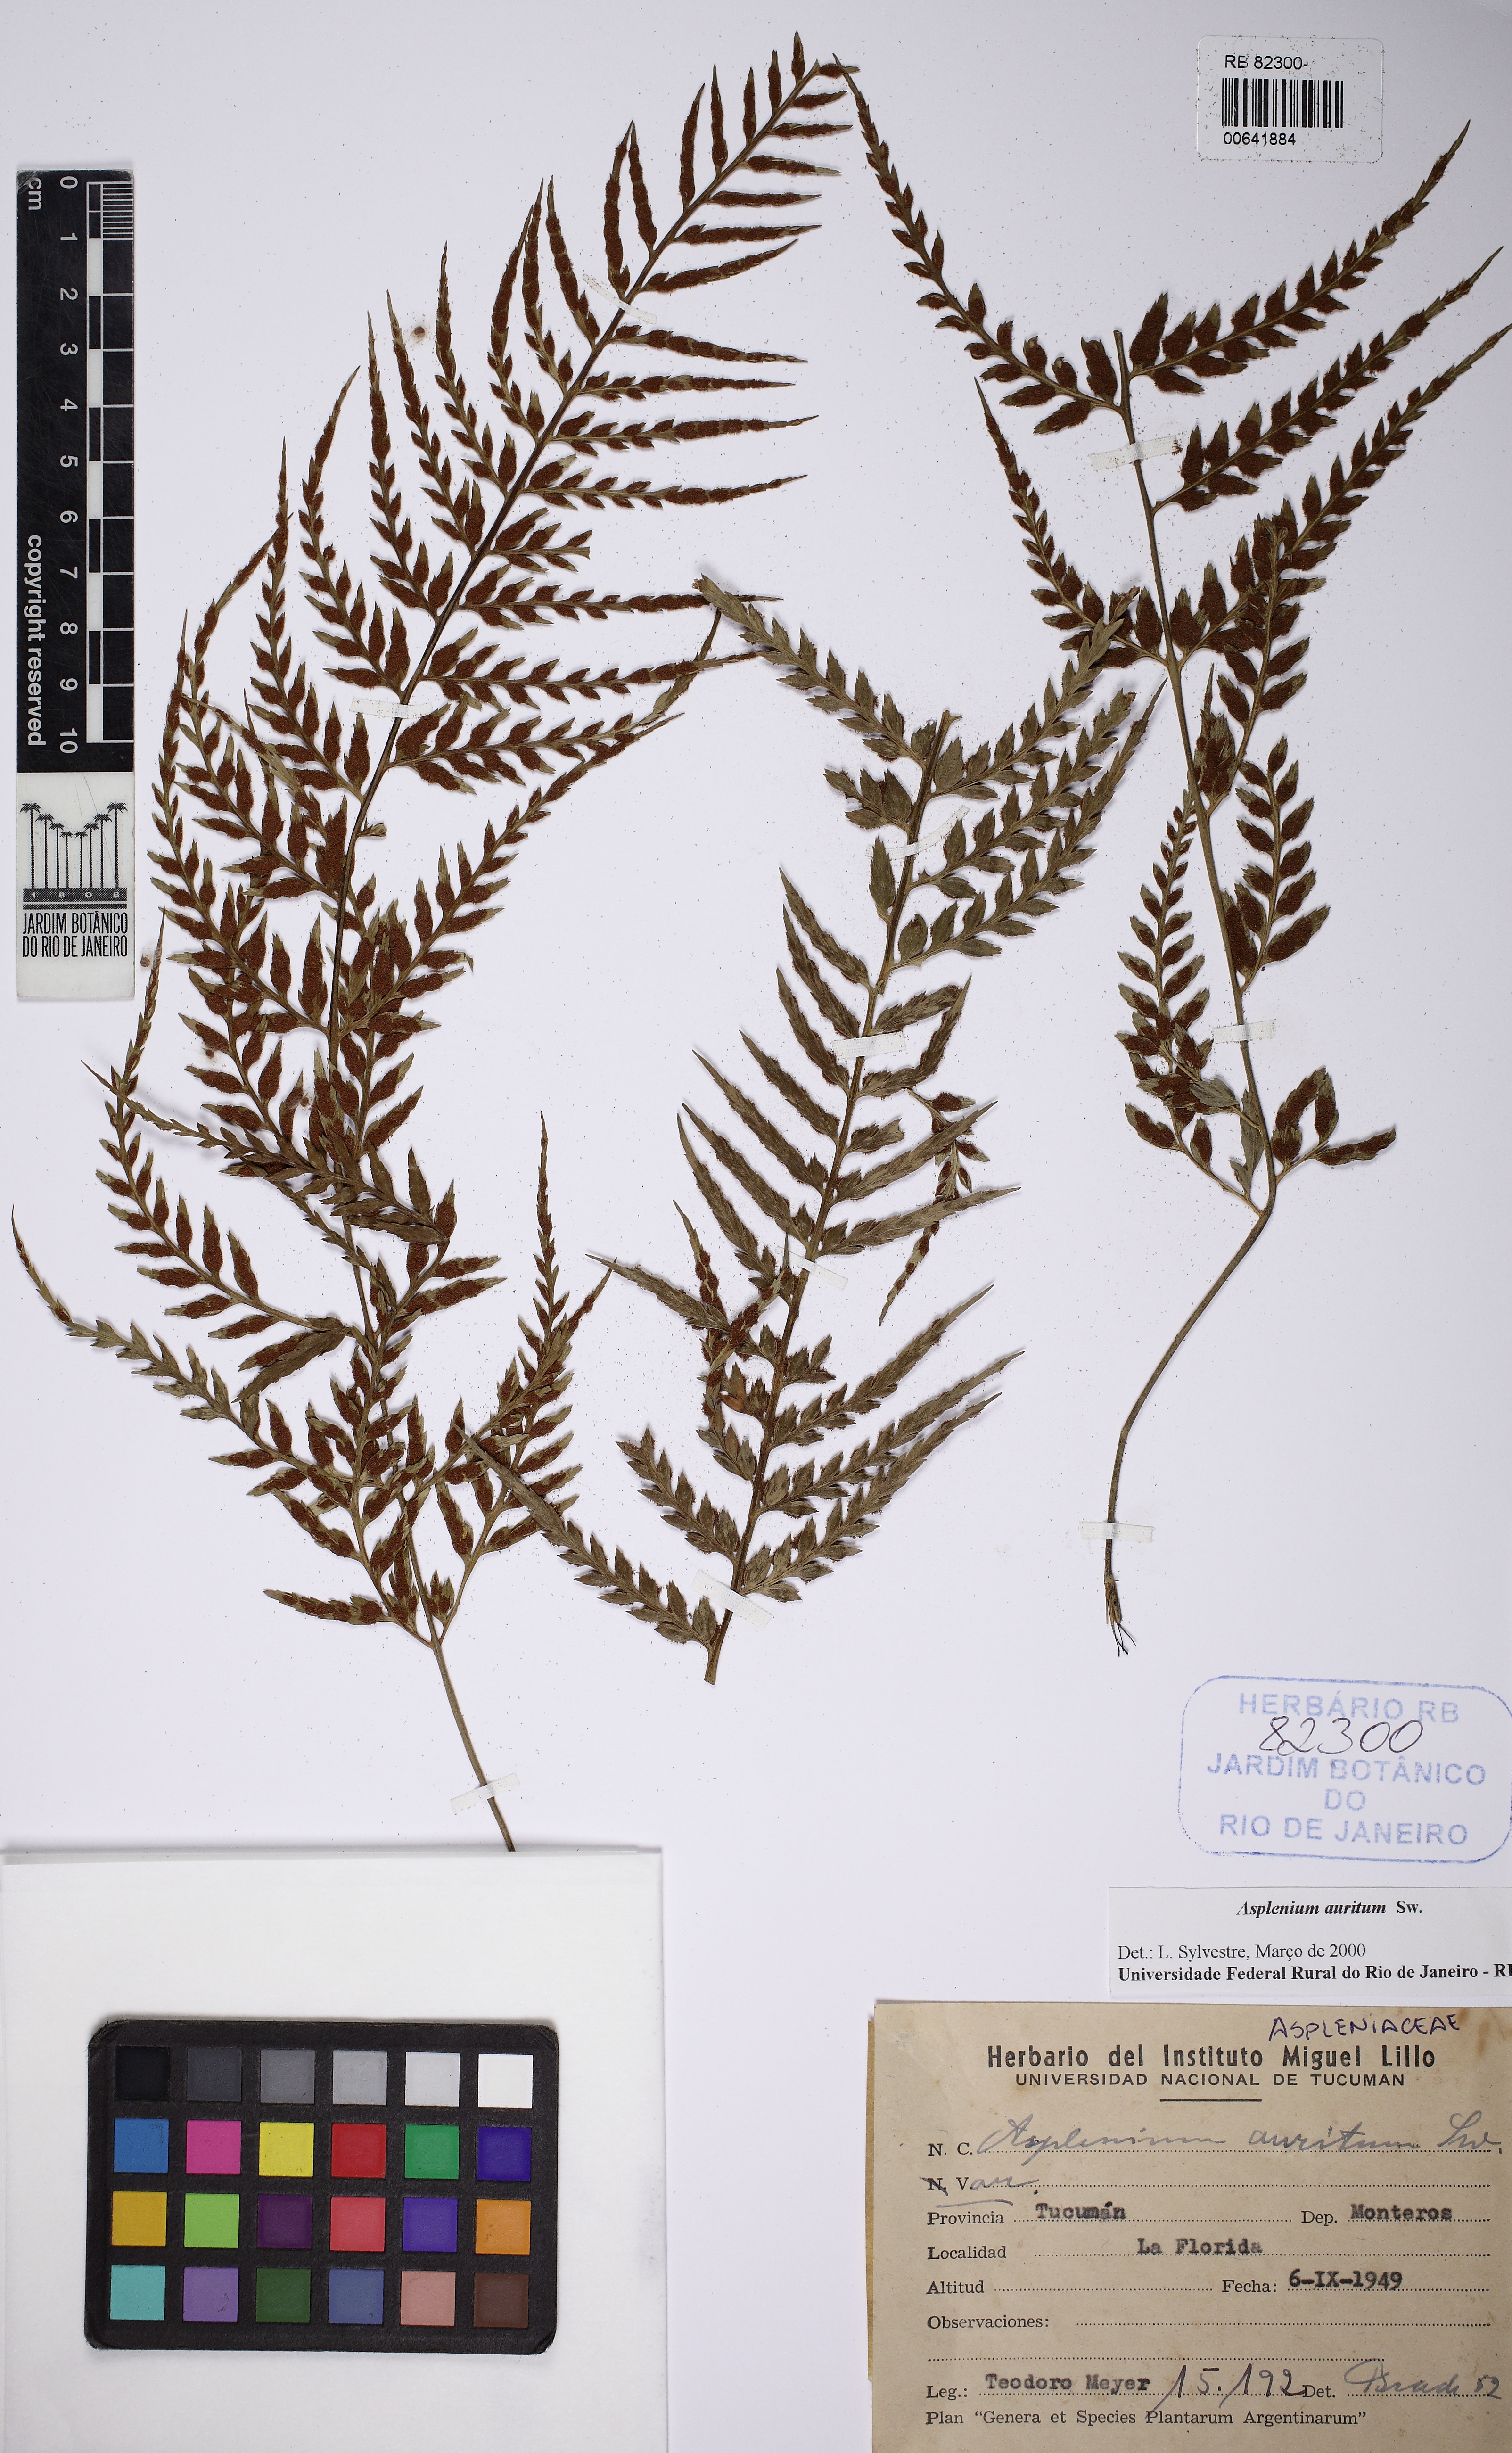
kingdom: Plantae
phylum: Tracheophyta
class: Polypodiopsida
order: Polypodiales
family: Aspleniaceae
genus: Asplenium
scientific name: Asplenium auritum
